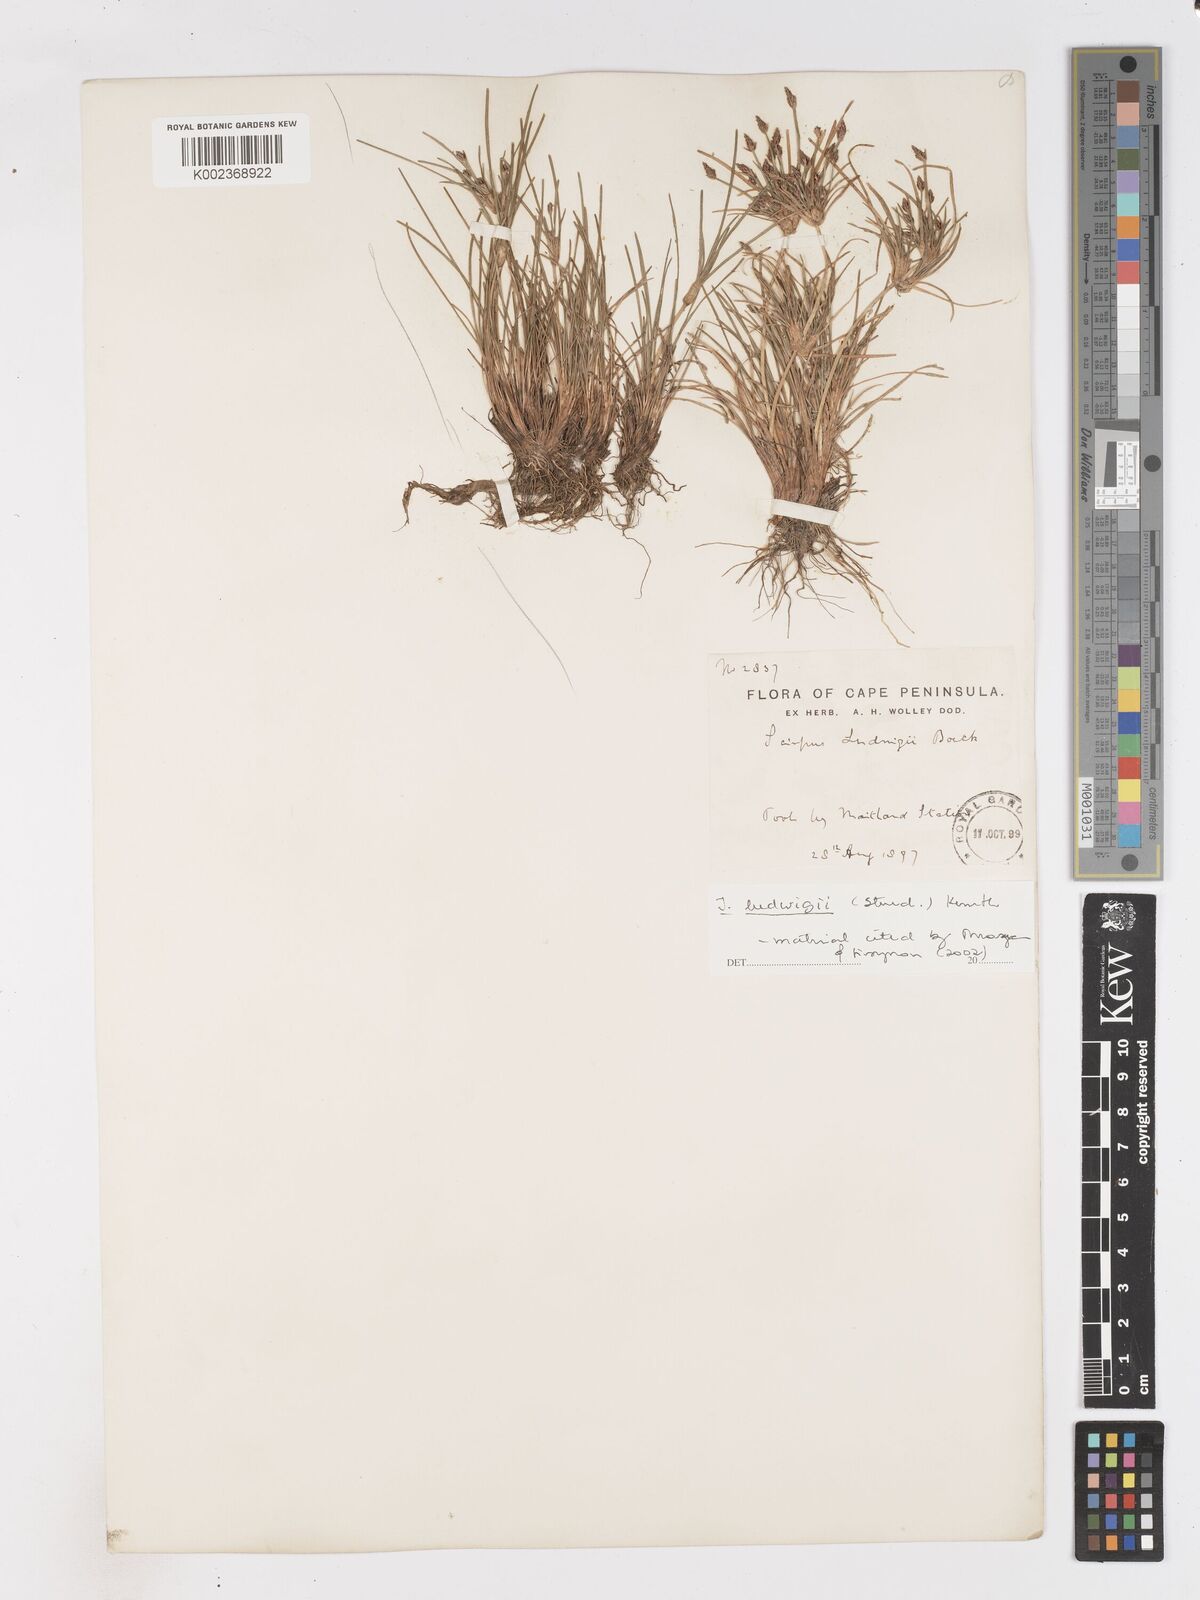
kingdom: Plantae
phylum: Tracheophyta
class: Liliopsida
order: Poales
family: Cyperaceae
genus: Isolepis
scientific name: Isolepis ludwigii
